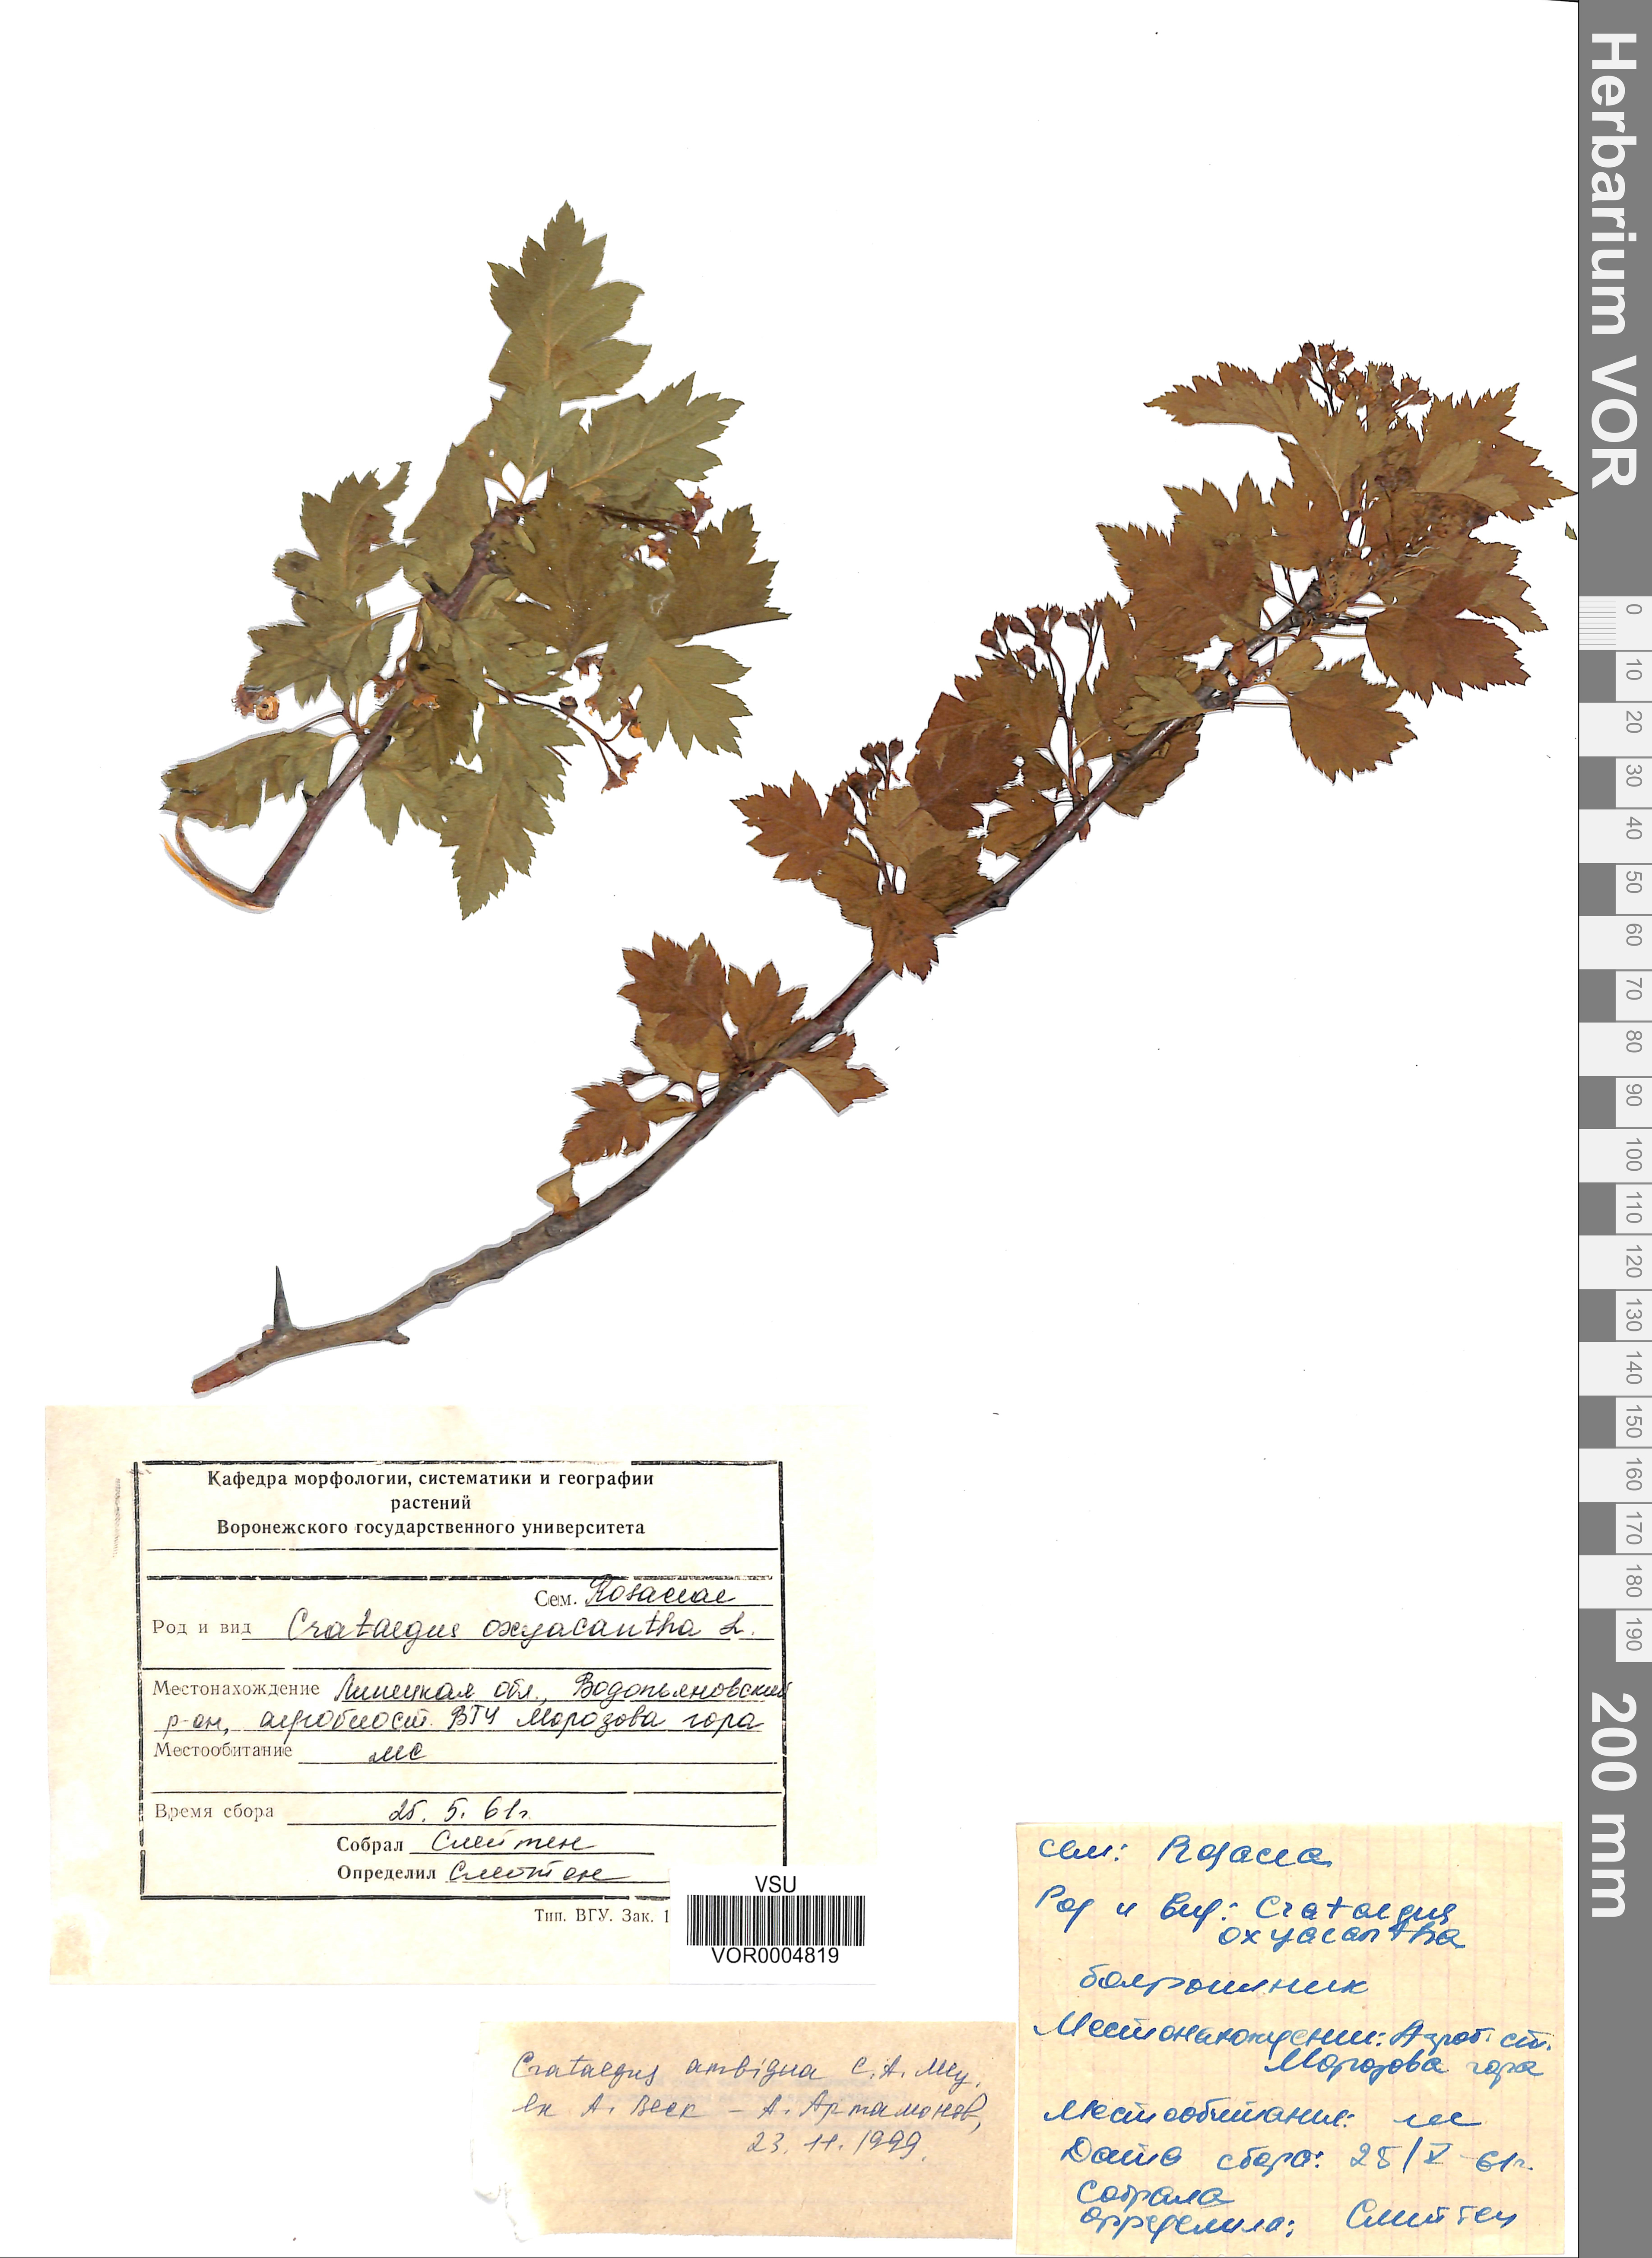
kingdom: Plantae
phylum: Tracheophyta
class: Magnoliopsida
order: Rosales
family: Rosaceae
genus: Crataegus
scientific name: Crataegus ambigua
